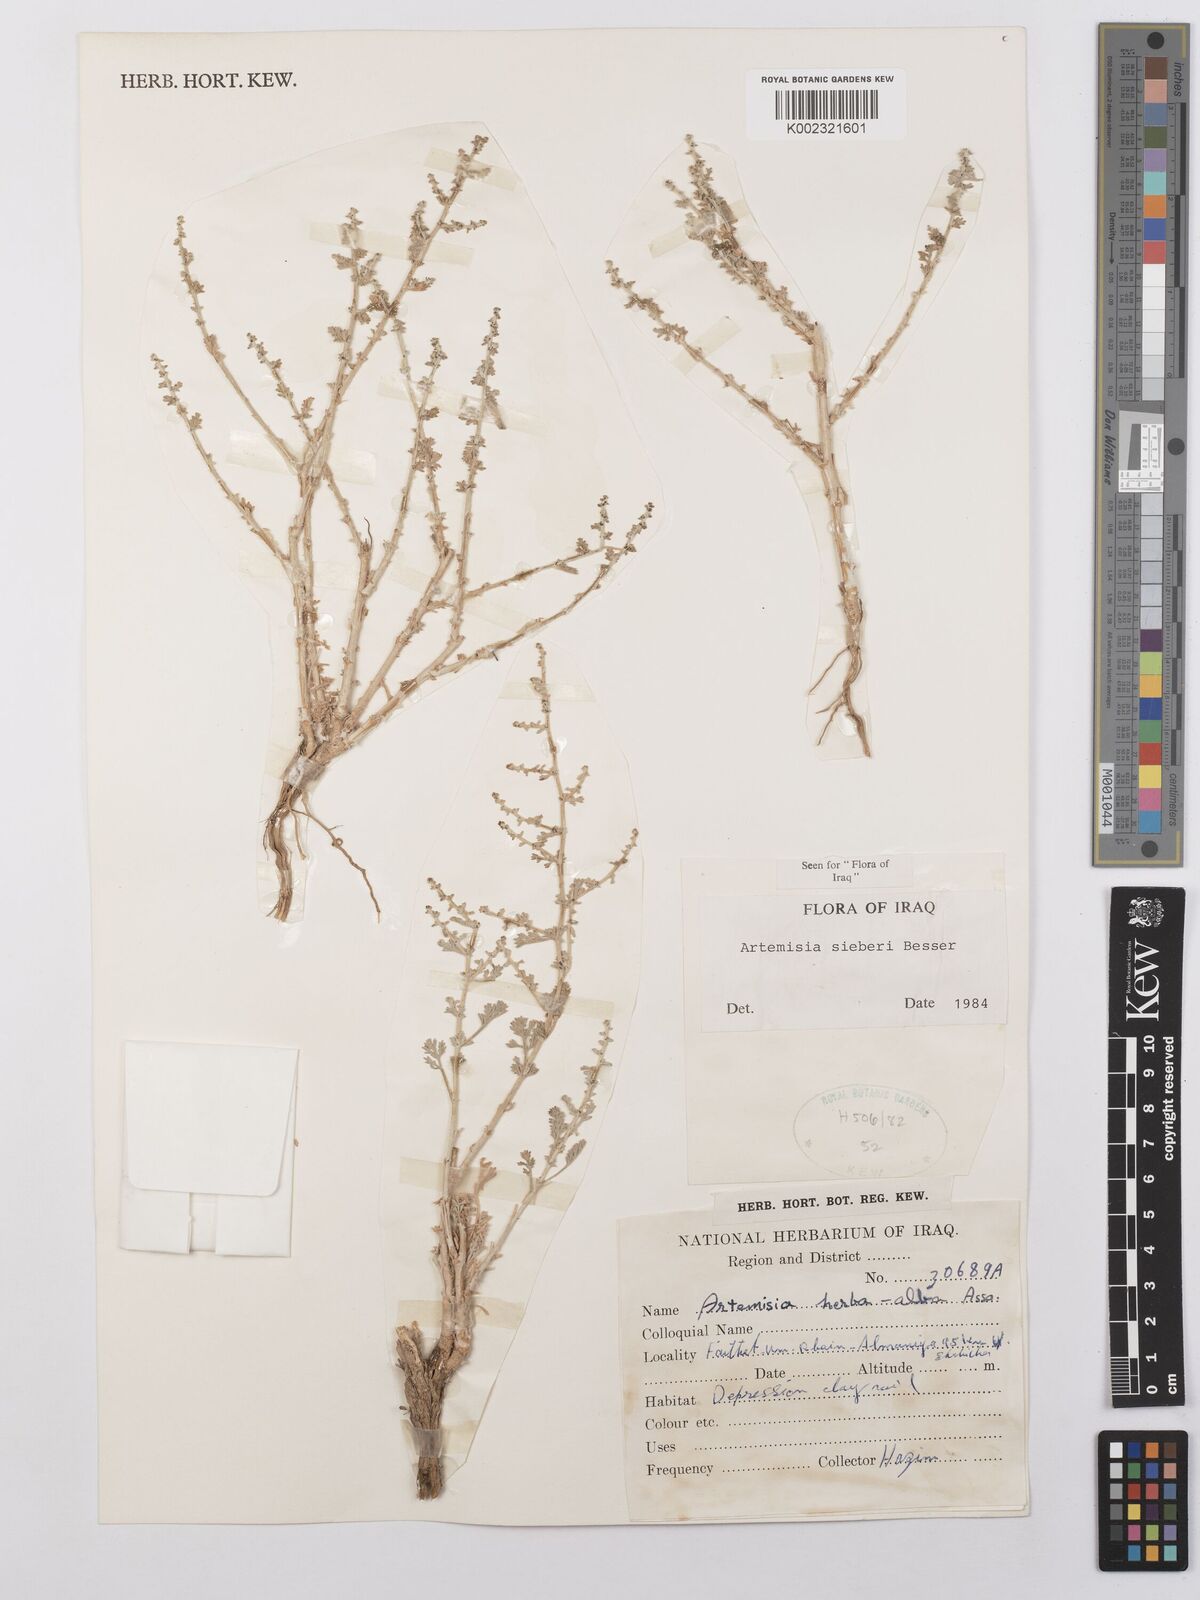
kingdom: Plantae
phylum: Tracheophyta
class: Magnoliopsida
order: Asterales
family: Asteraceae
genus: Artemisia
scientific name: Artemisia sieberi
